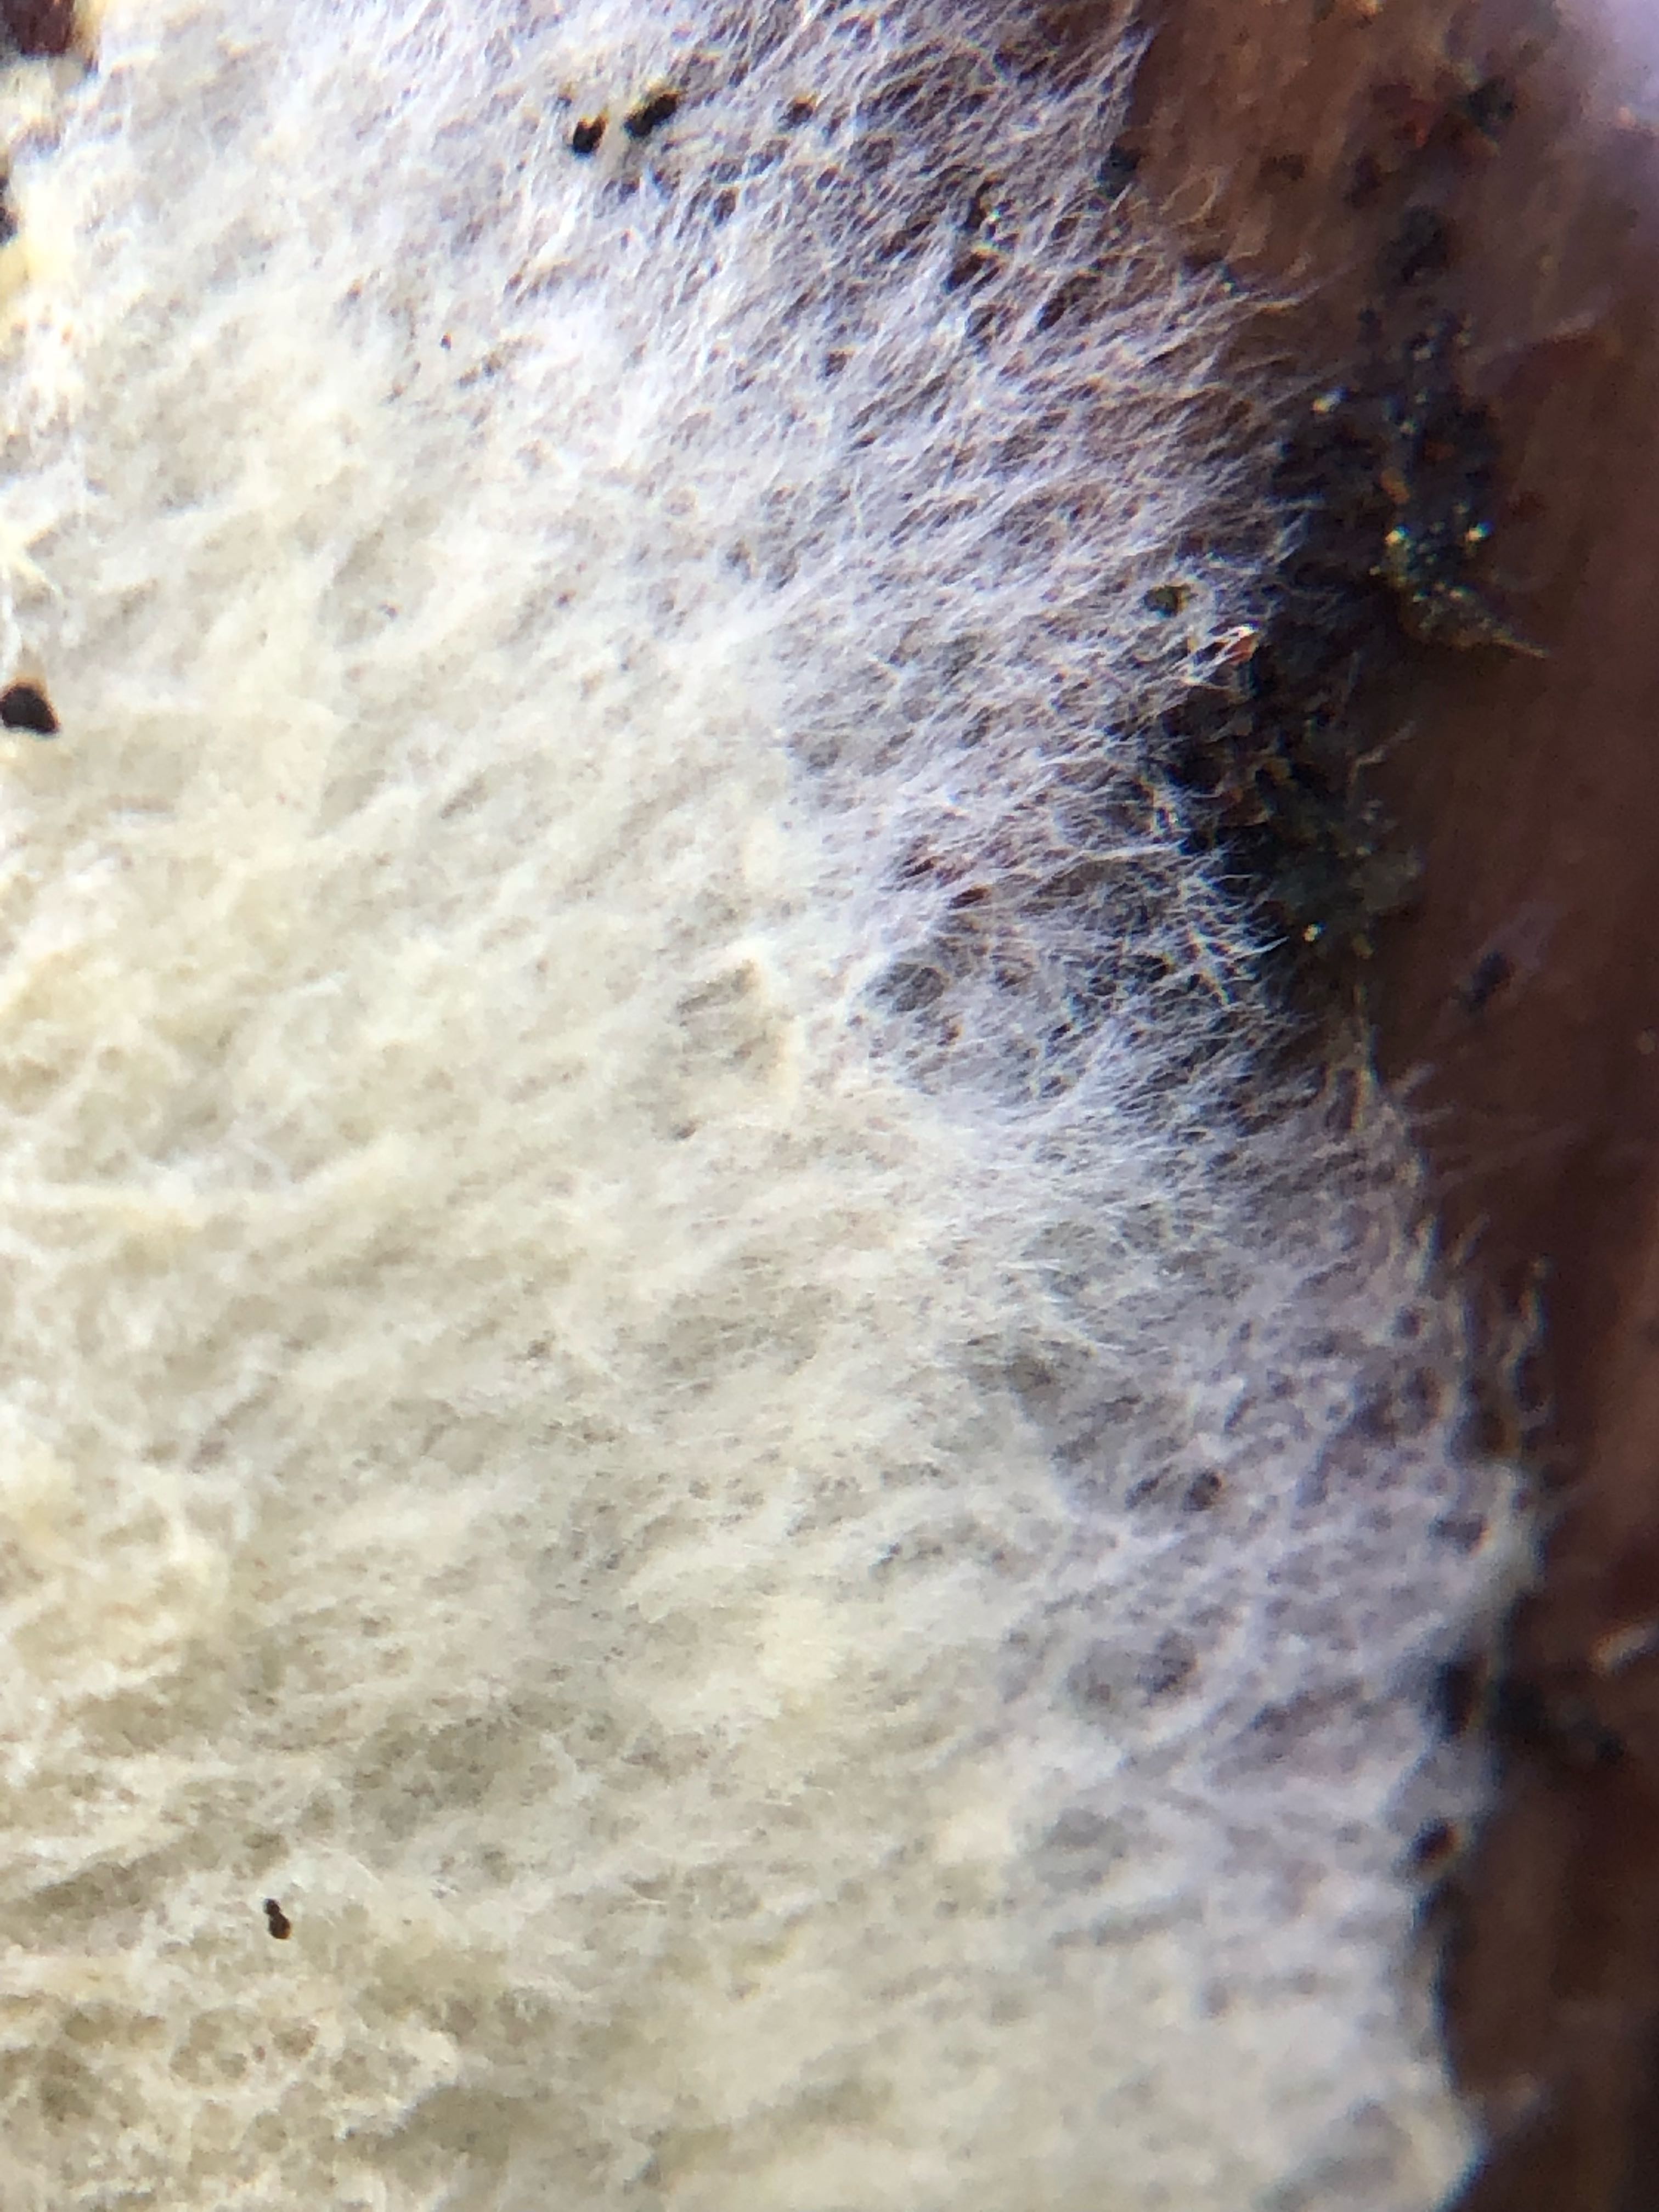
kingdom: Fungi
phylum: Basidiomycota
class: Agaricomycetes
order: Boletales
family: Coniophoraceae
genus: Coniophora
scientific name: Coniophora arida
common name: tynd tømmersvamp
